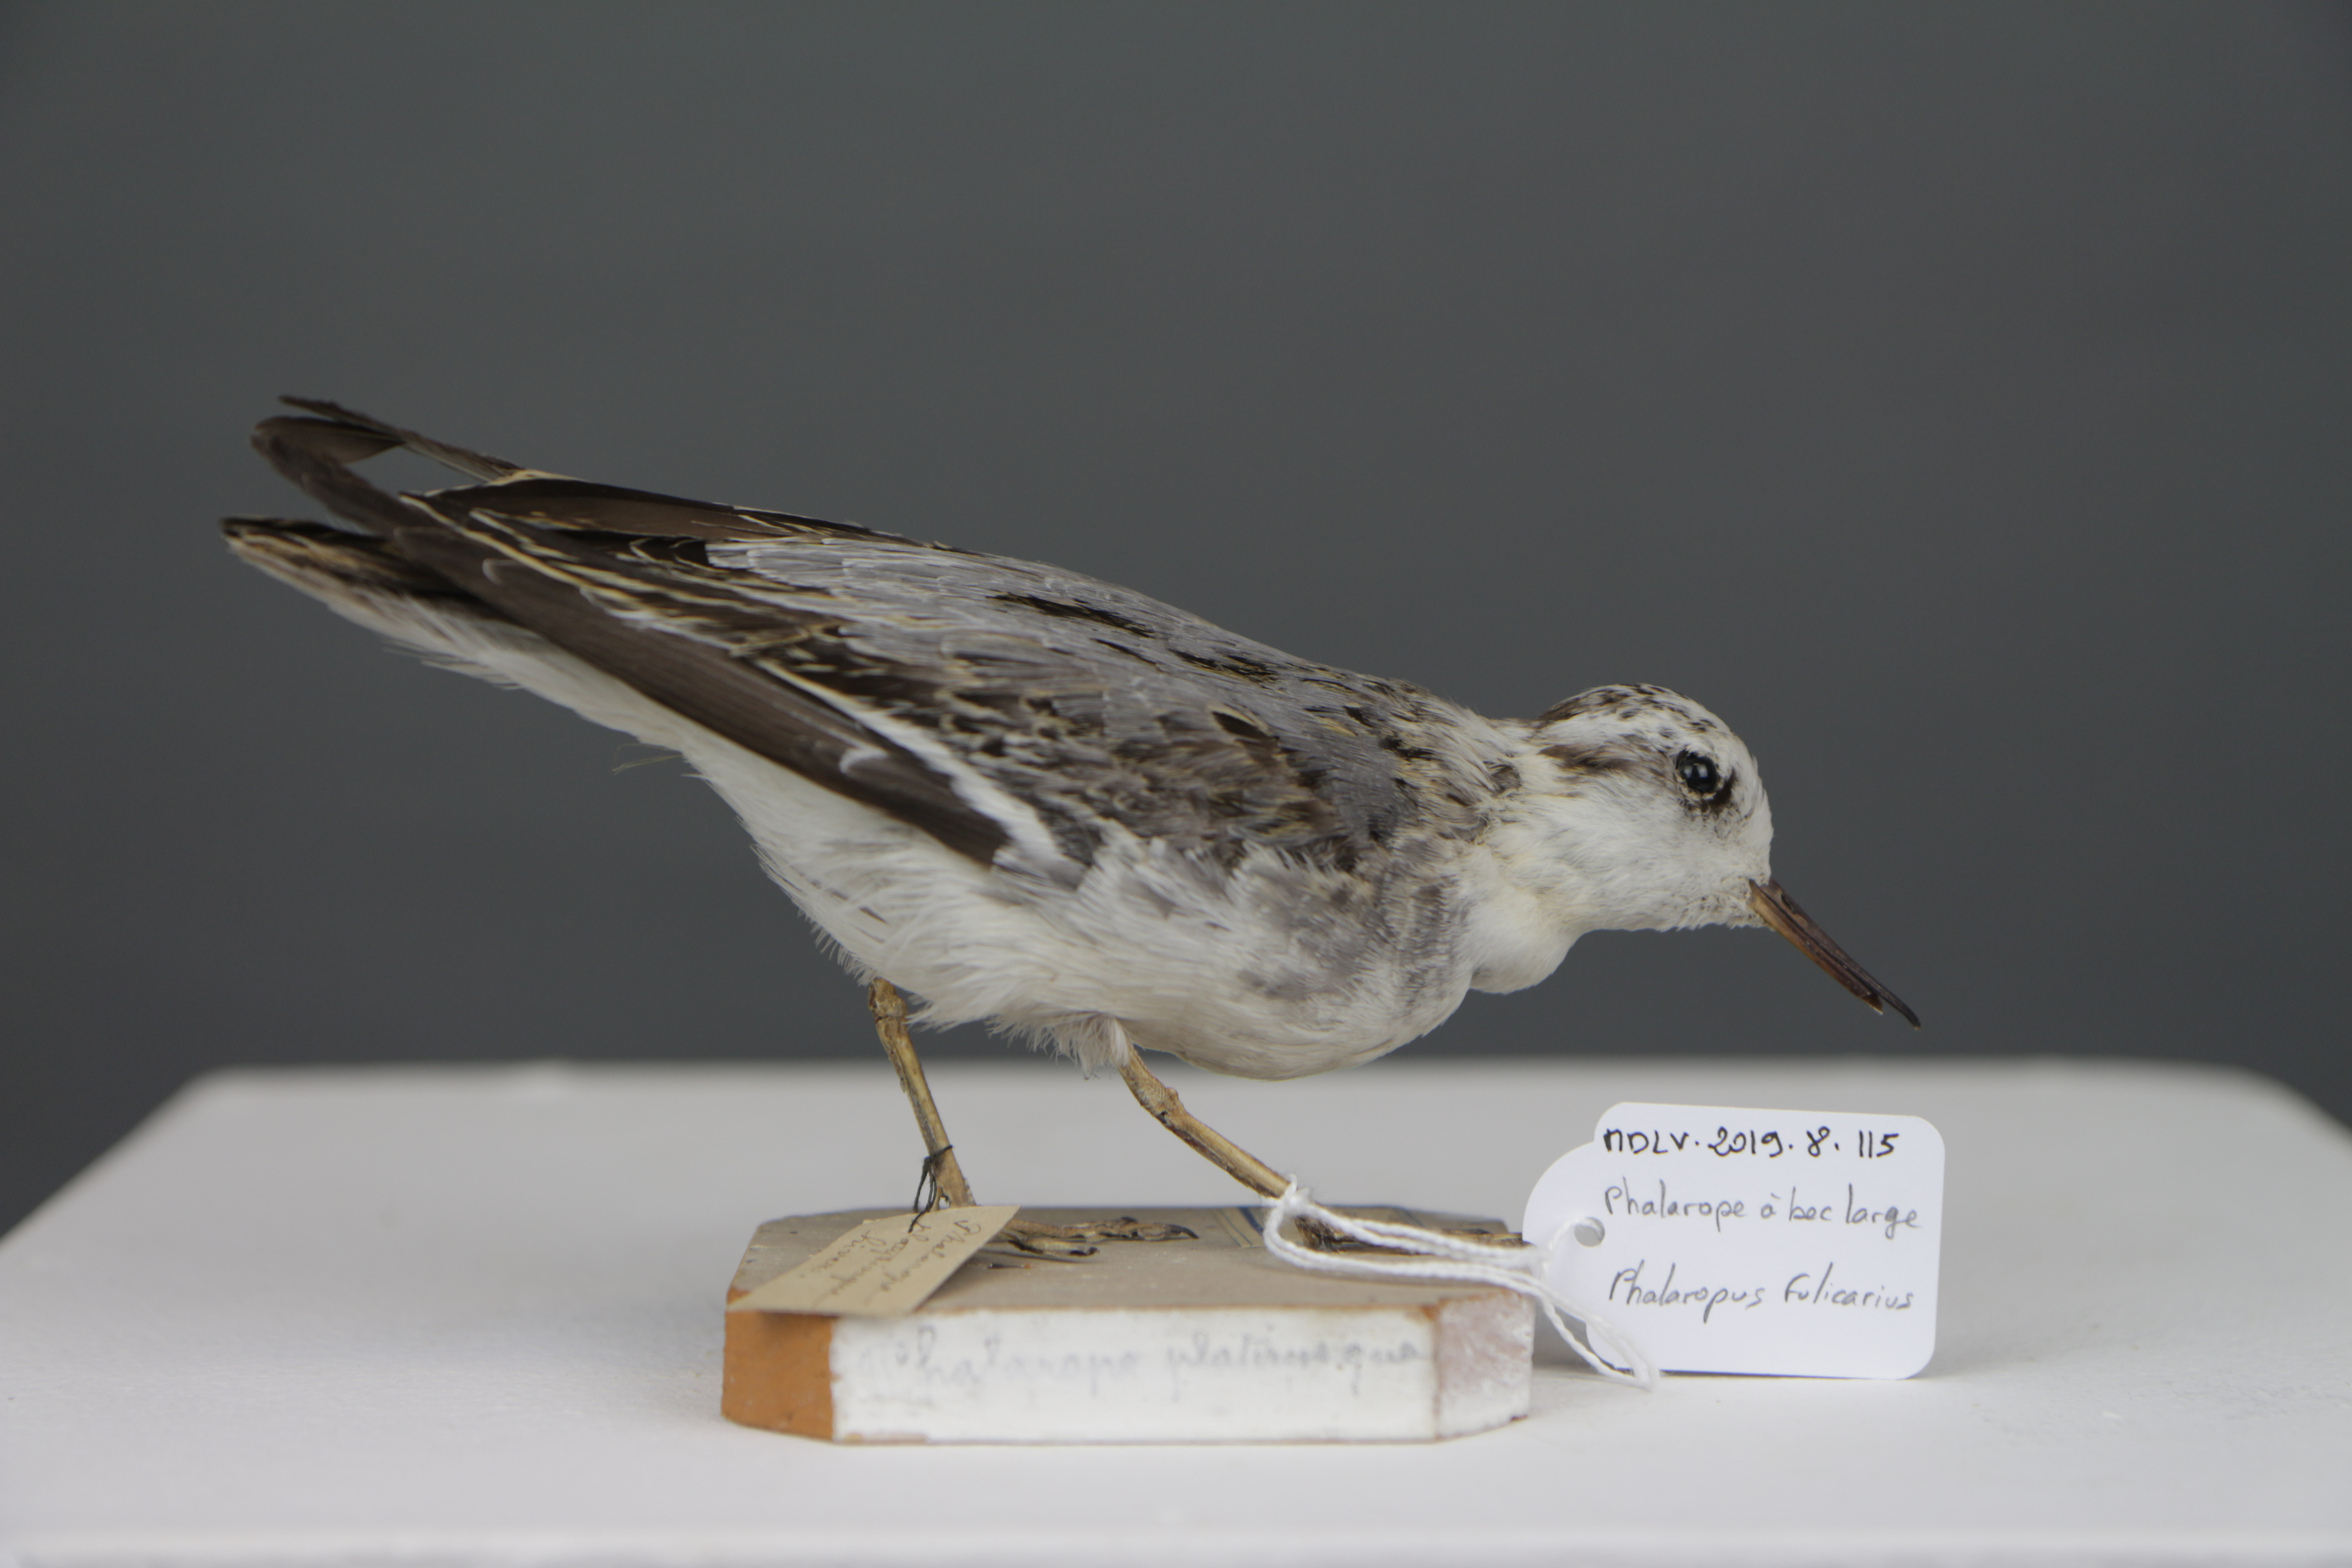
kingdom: Animalia
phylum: Chordata
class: Aves
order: Charadriiformes
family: Scolopacidae
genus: Phalaropus
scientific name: Phalaropus fulicarius
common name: Red phalarope
